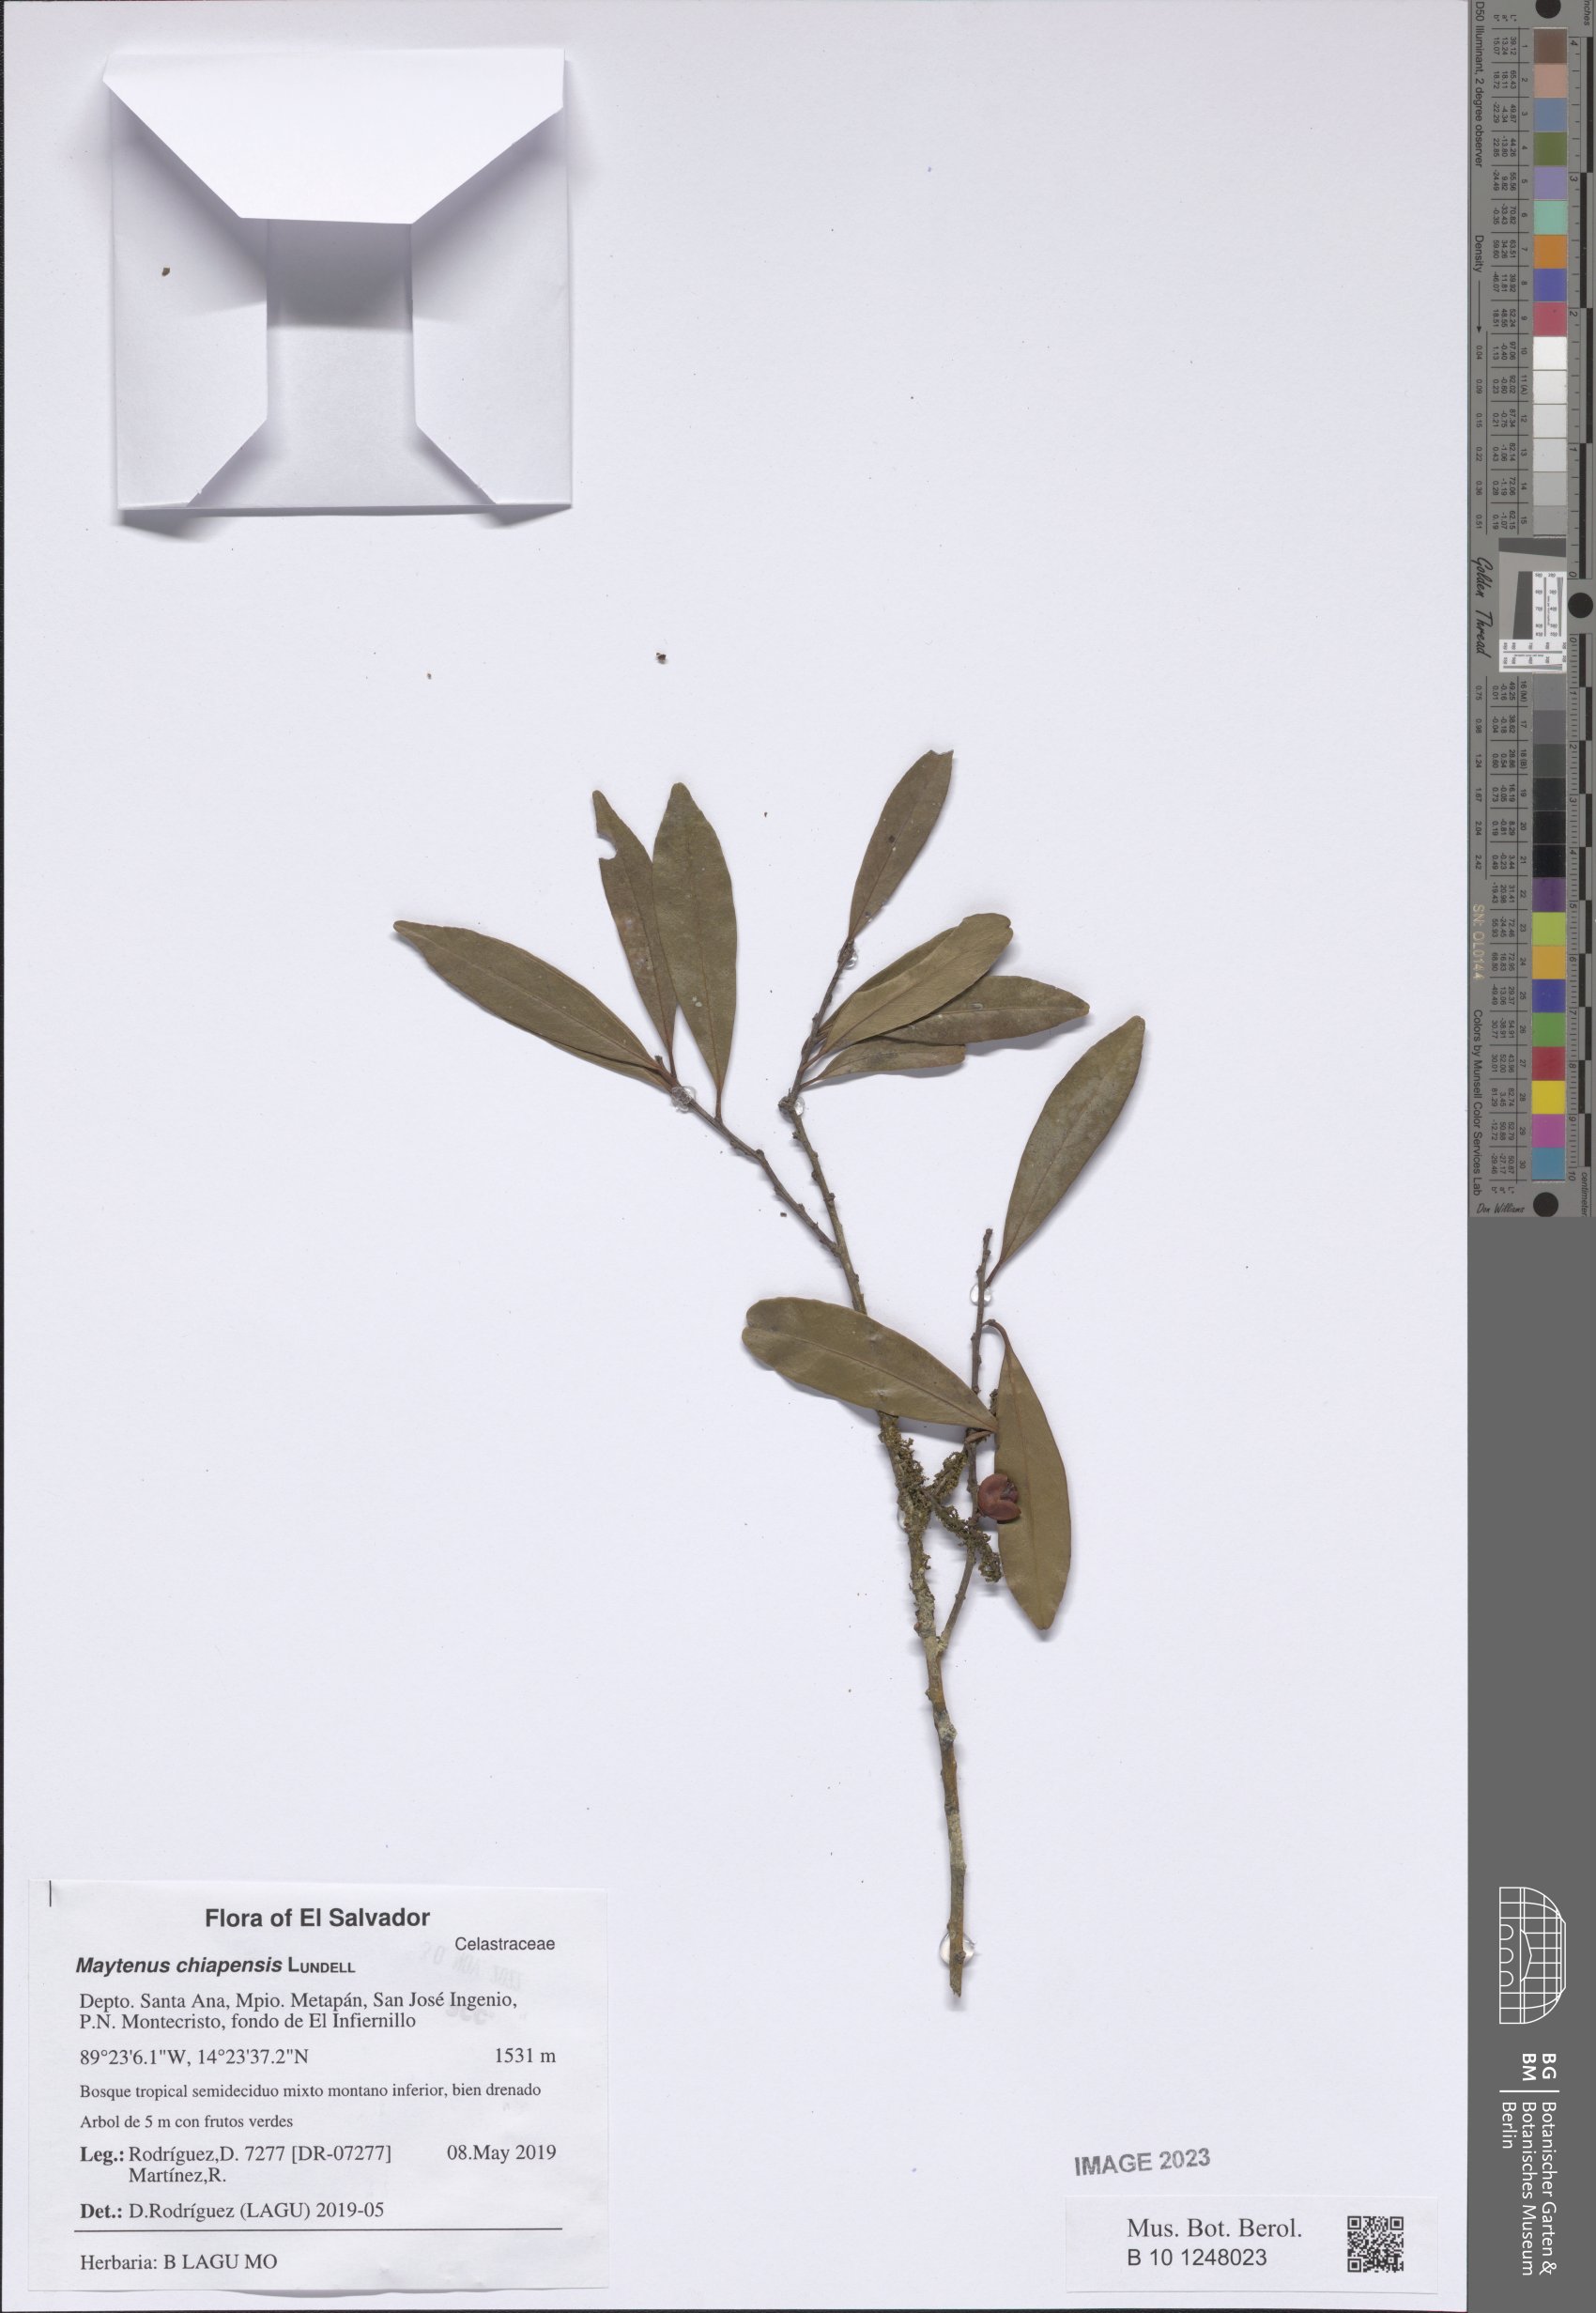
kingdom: Plantae
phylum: Tracheophyta
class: Magnoliopsida
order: Celastrales
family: Celastraceae
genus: Monteverdia
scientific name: Monteverdia chiapensis
